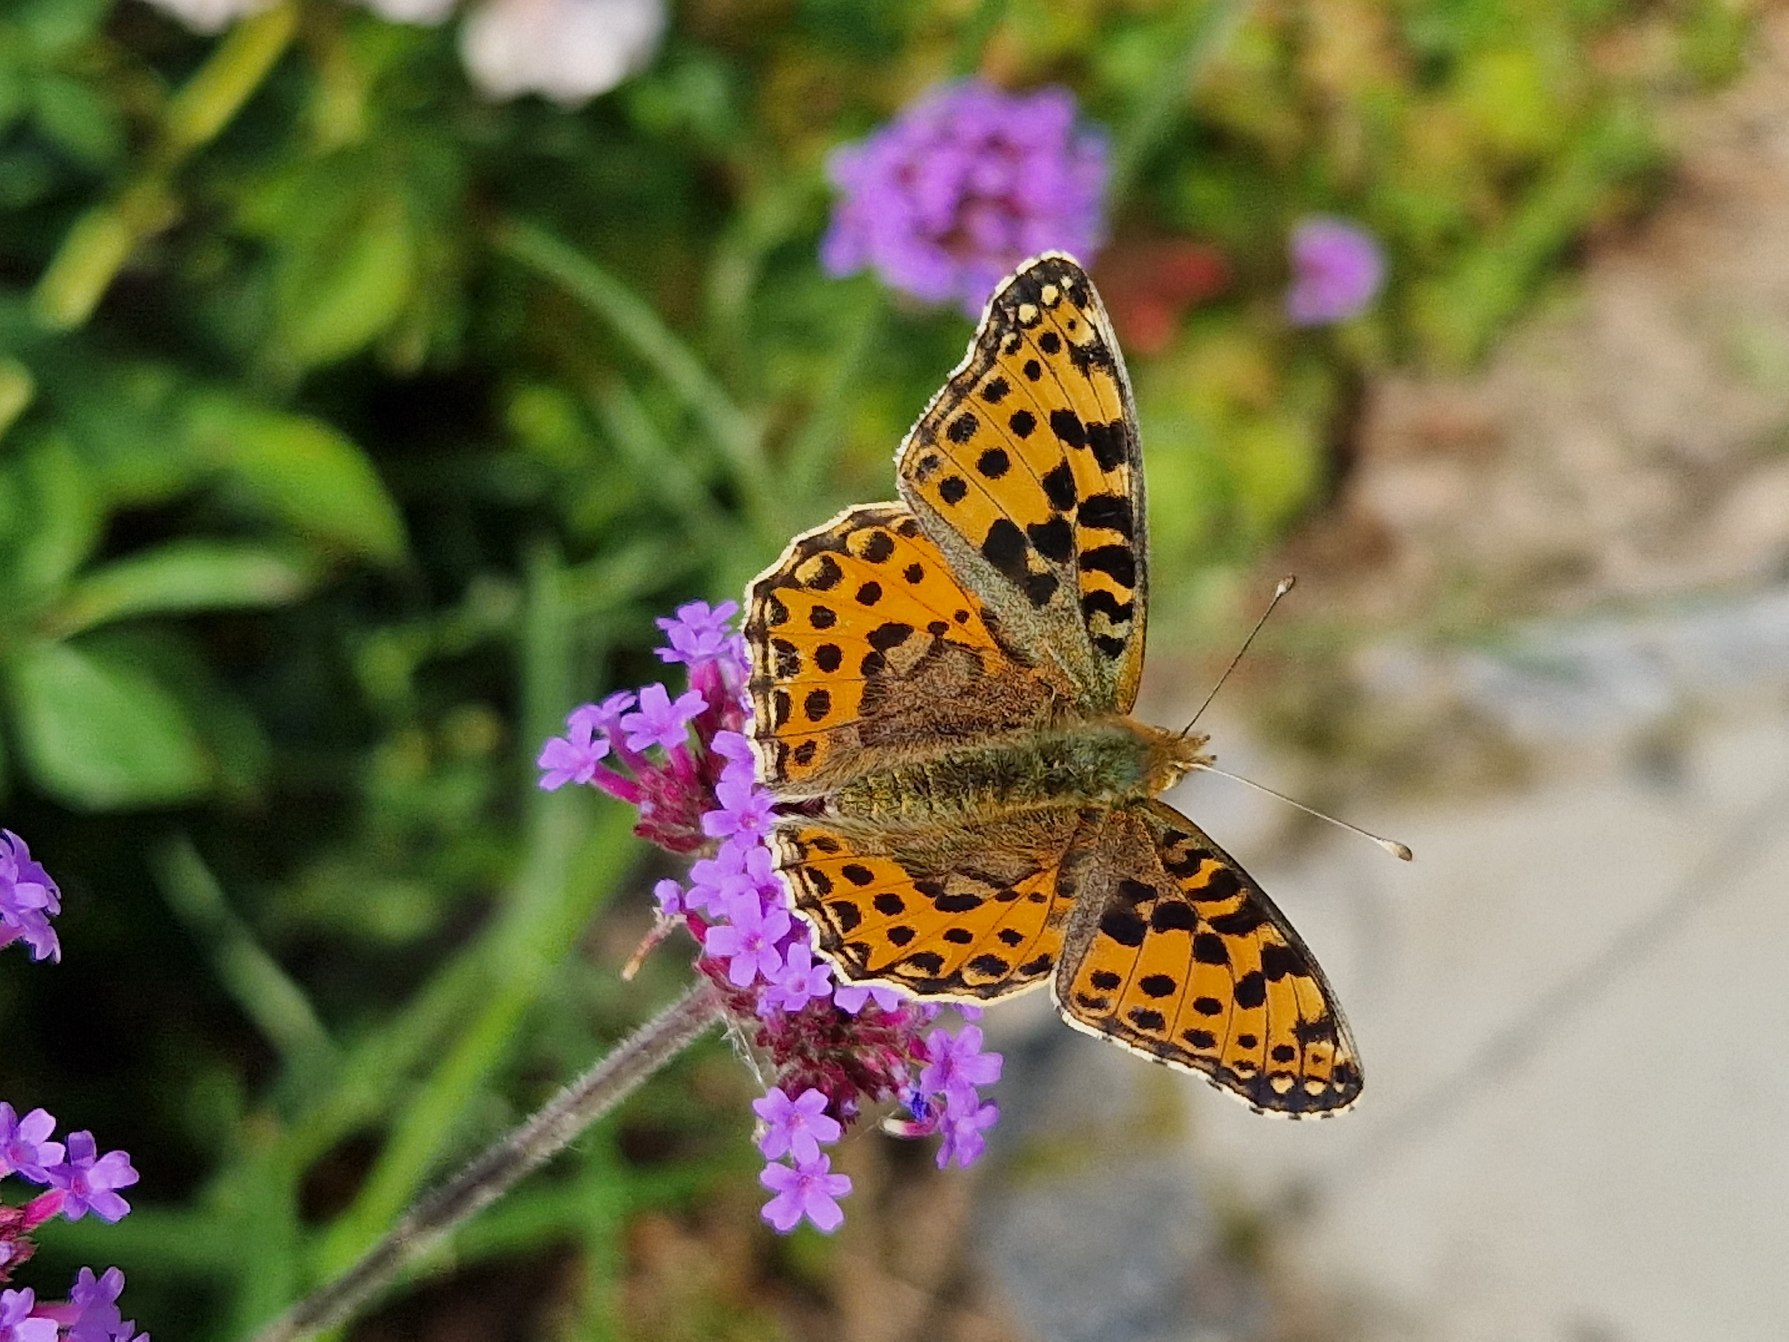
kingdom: Animalia
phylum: Arthropoda
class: Insecta
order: Lepidoptera
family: Nymphalidae
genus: Issoria
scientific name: Issoria lathonia
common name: Storplettet perlemorsommerfugl
